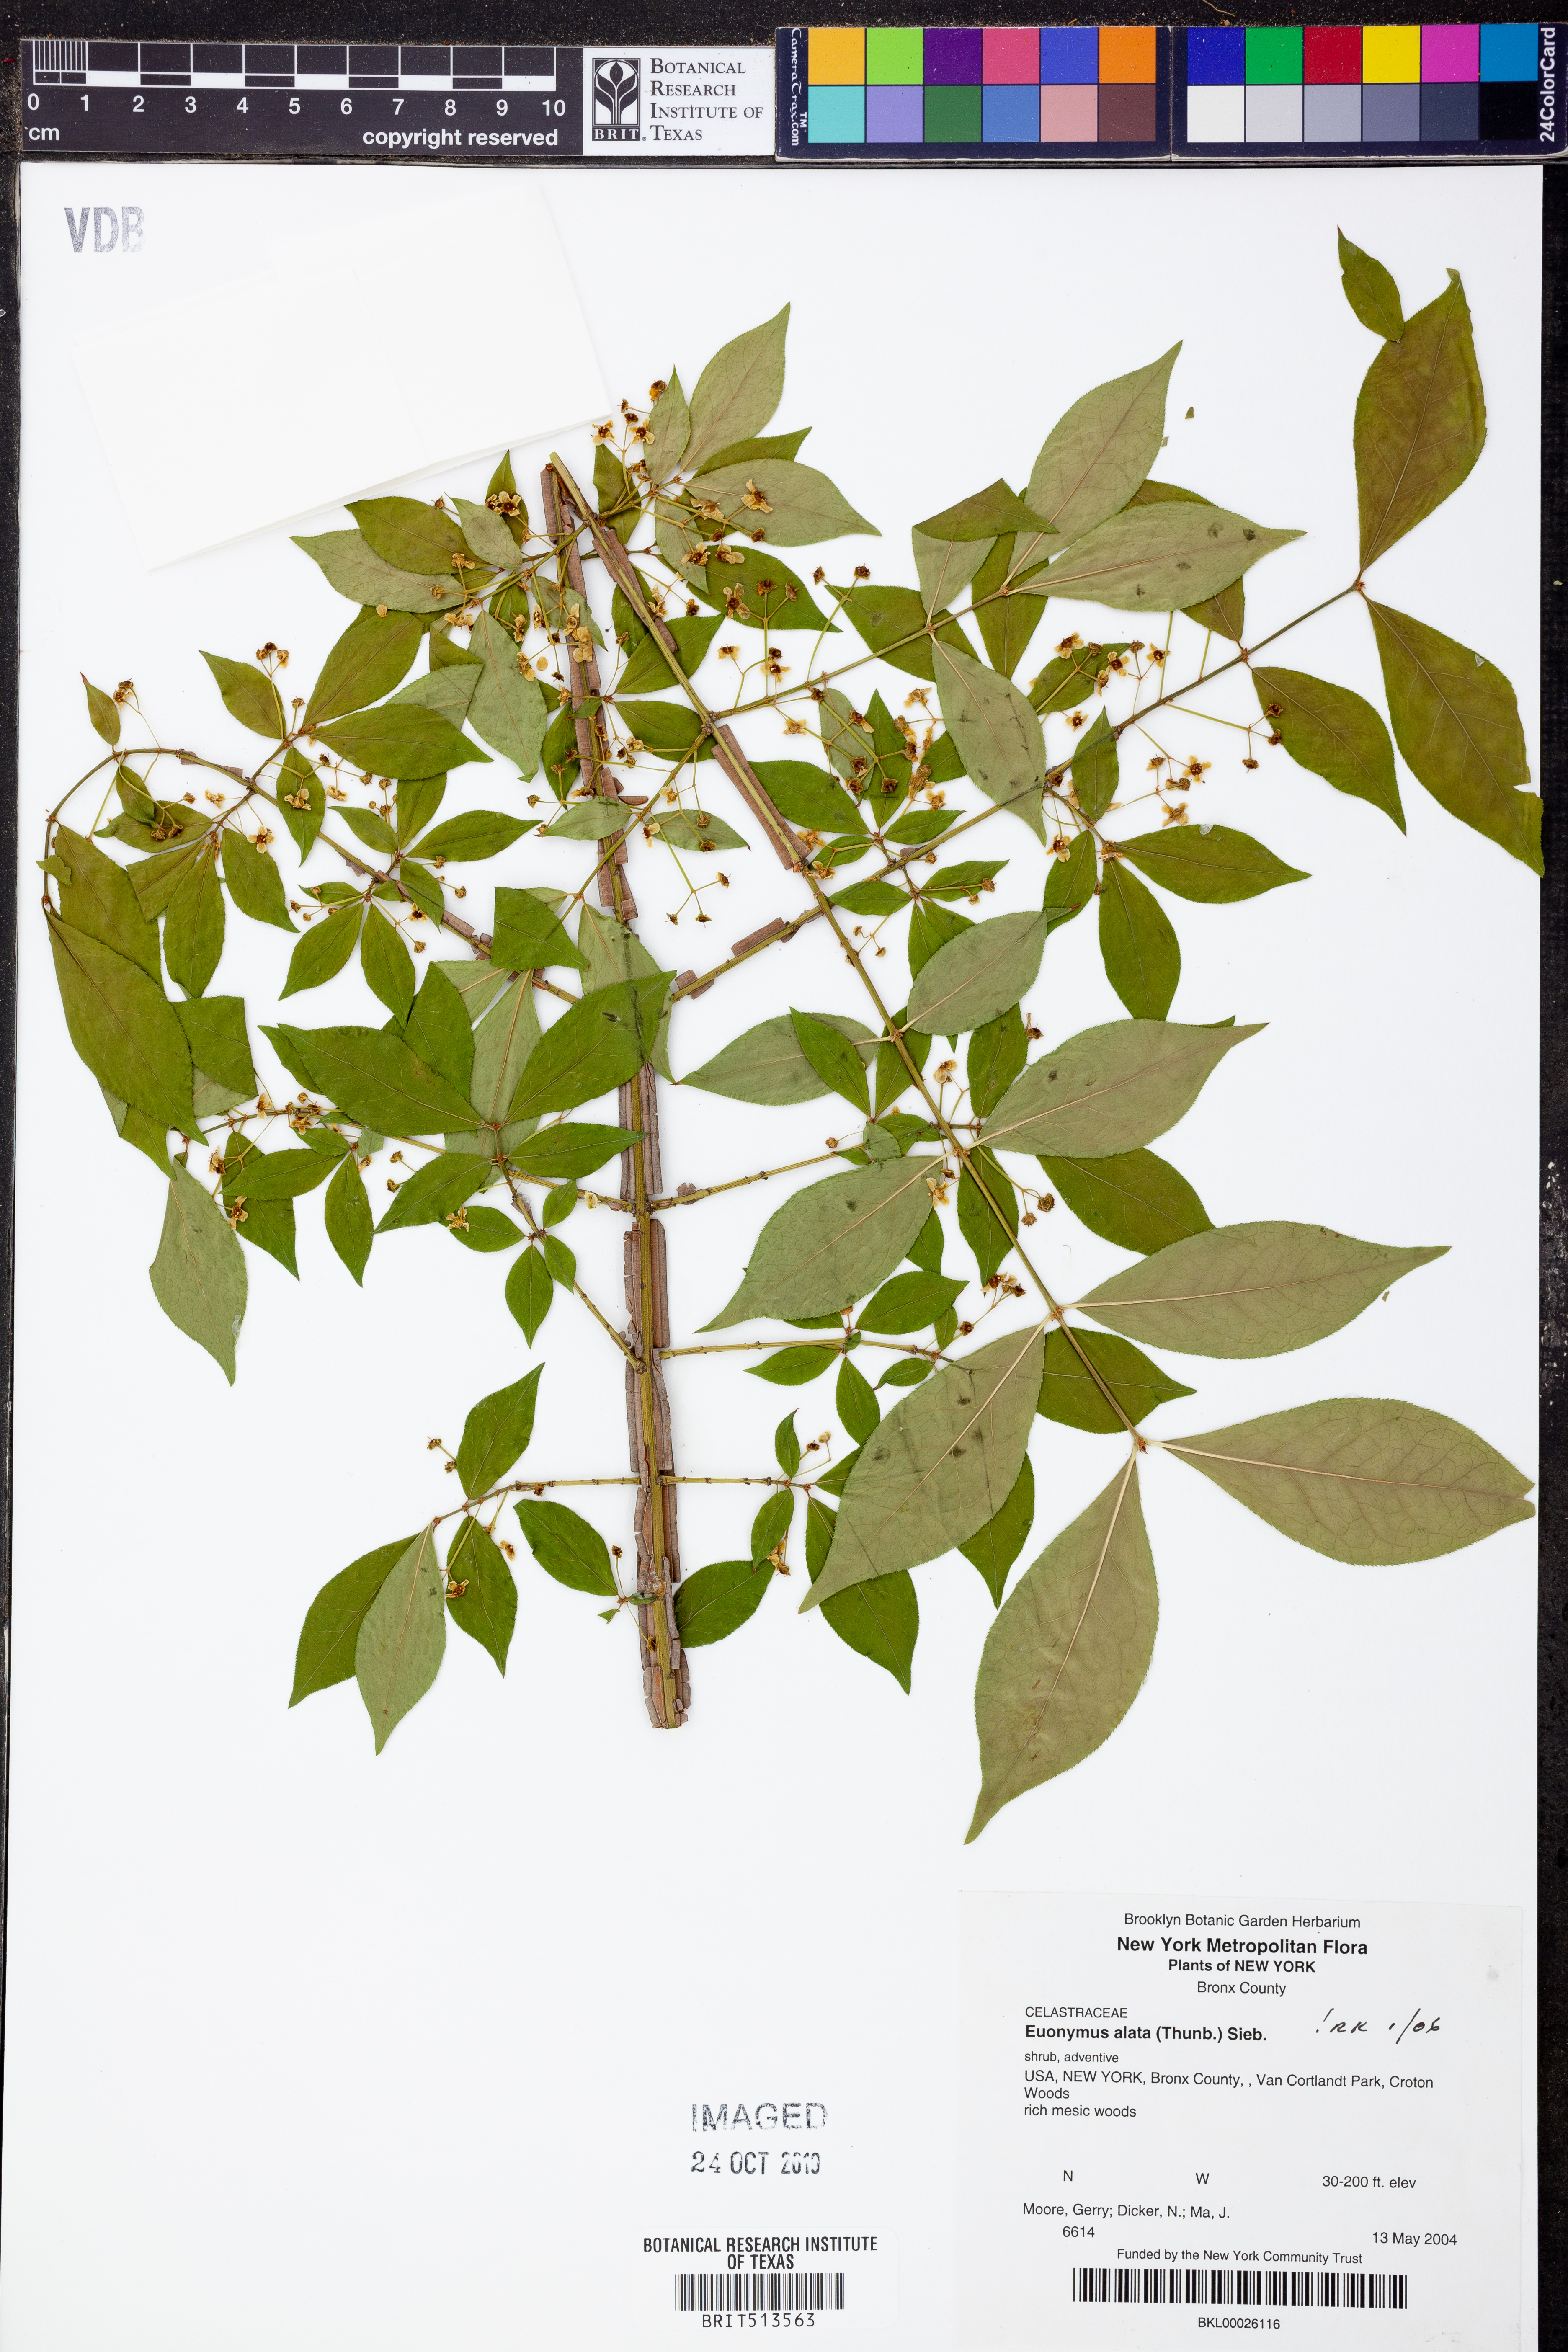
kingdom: Plantae
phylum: Tracheophyta
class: Magnoliopsida
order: Celastrales
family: Celastraceae
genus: Euonymus
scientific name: Euonymus alatus
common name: Winged euonymus
